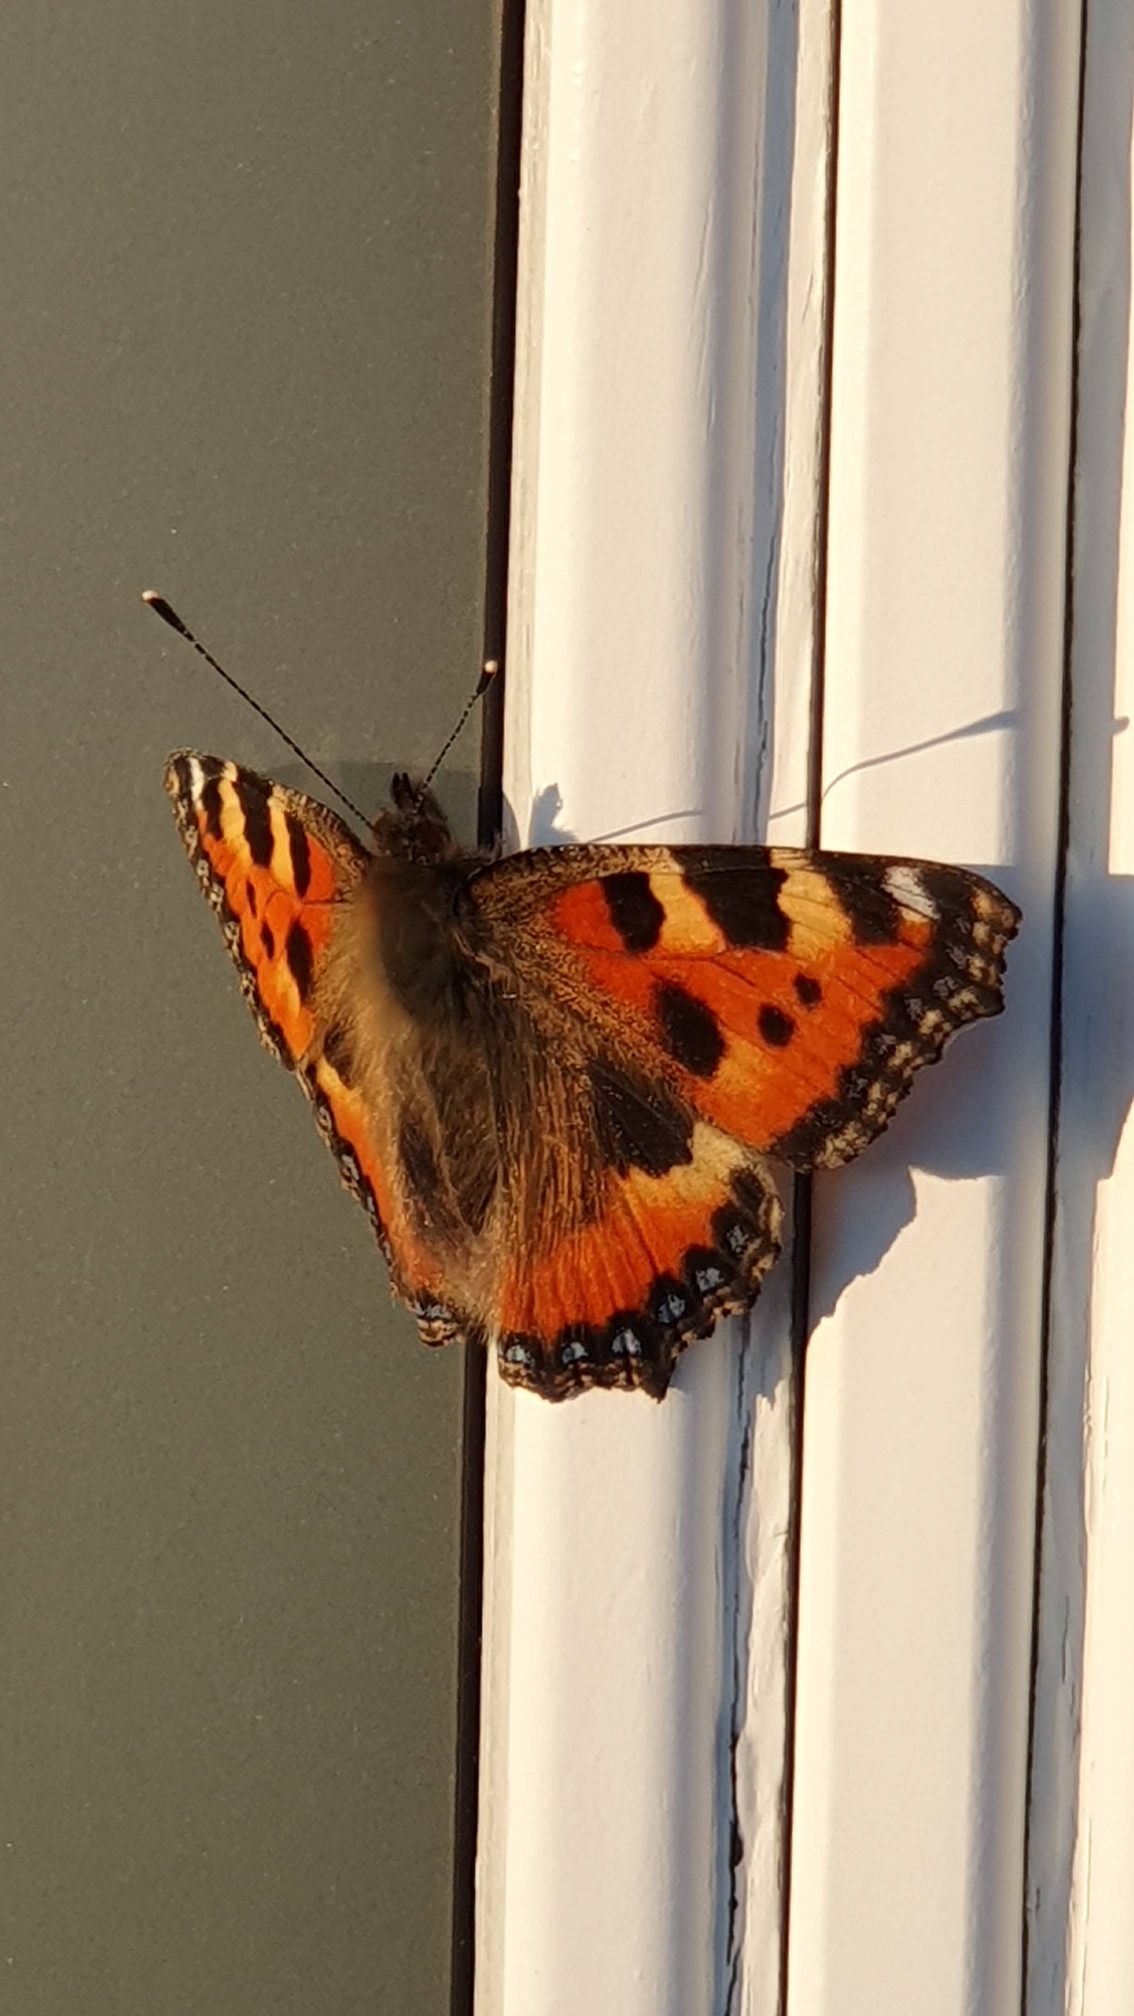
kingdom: Animalia
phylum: Arthropoda
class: Insecta
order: Lepidoptera
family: Nymphalidae
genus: Aglais
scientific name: Aglais urticae
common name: Nældens takvinge
